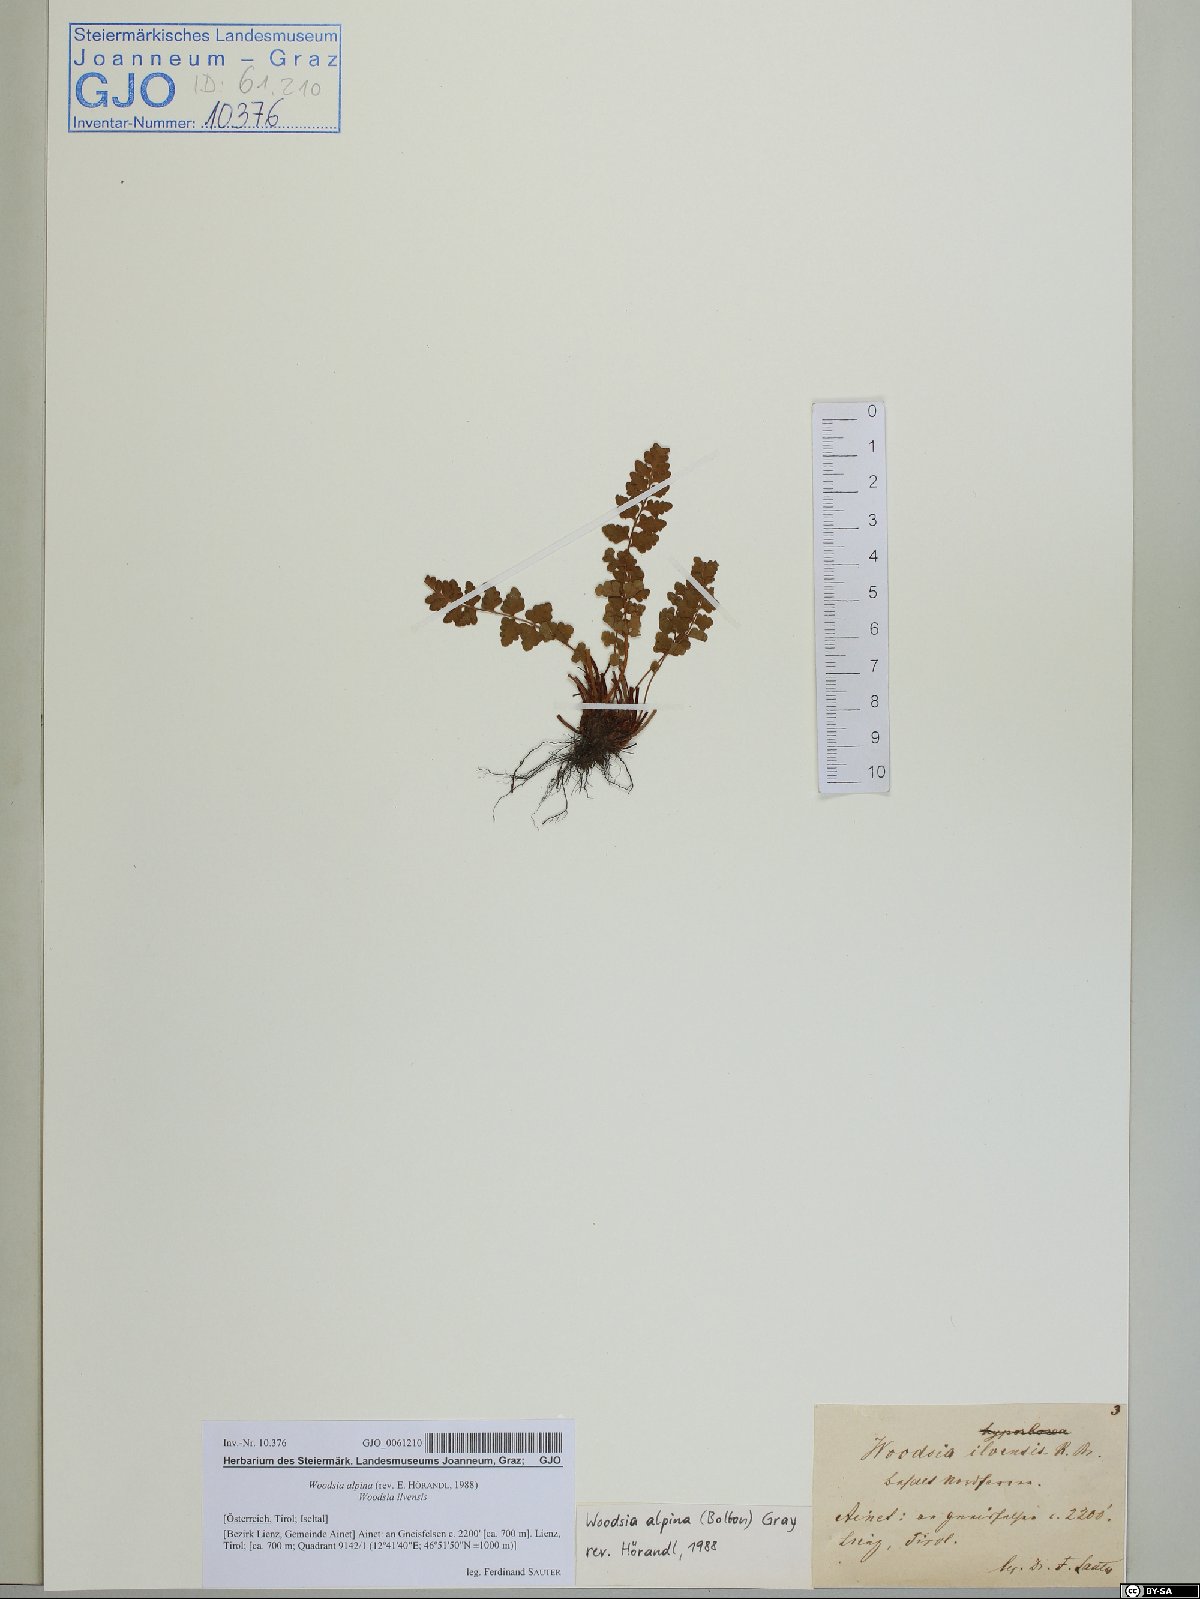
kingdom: Plantae
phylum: Tracheophyta
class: Polypodiopsida
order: Polypodiales
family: Woodsiaceae
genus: Woodsia
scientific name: Woodsia alpina
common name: Alpine woodsia
